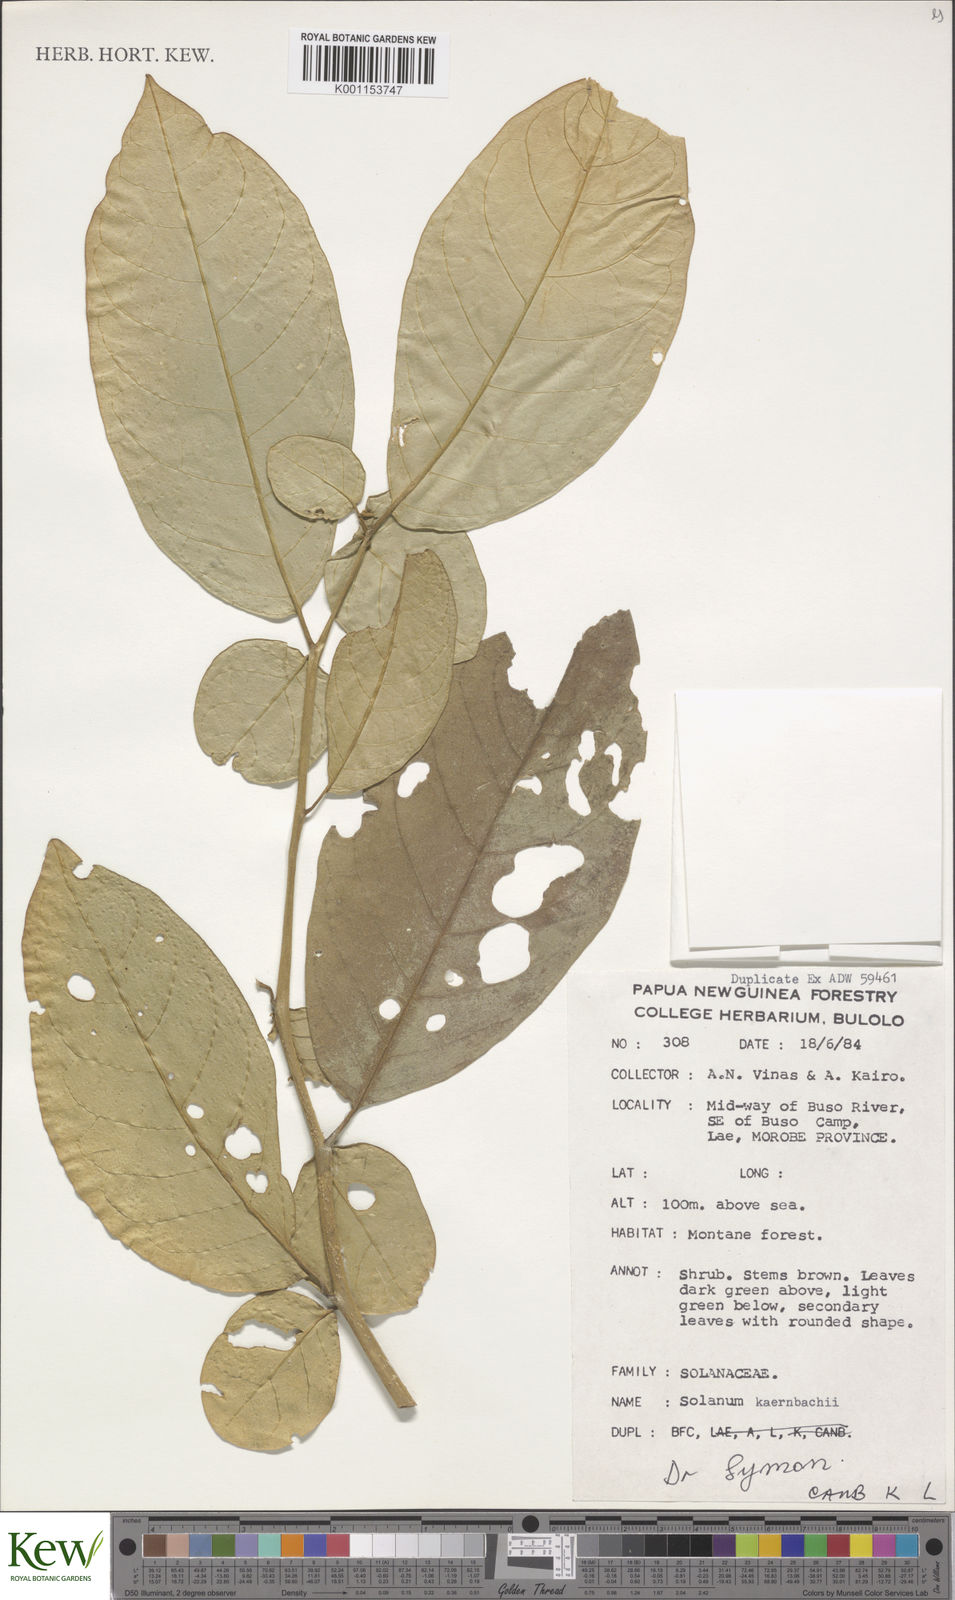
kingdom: Plantae
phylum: Tracheophyta
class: Magnoliopsida
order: Solanales
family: Solanaceae
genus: Lycianthes
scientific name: Lycianthes kaernbachii
